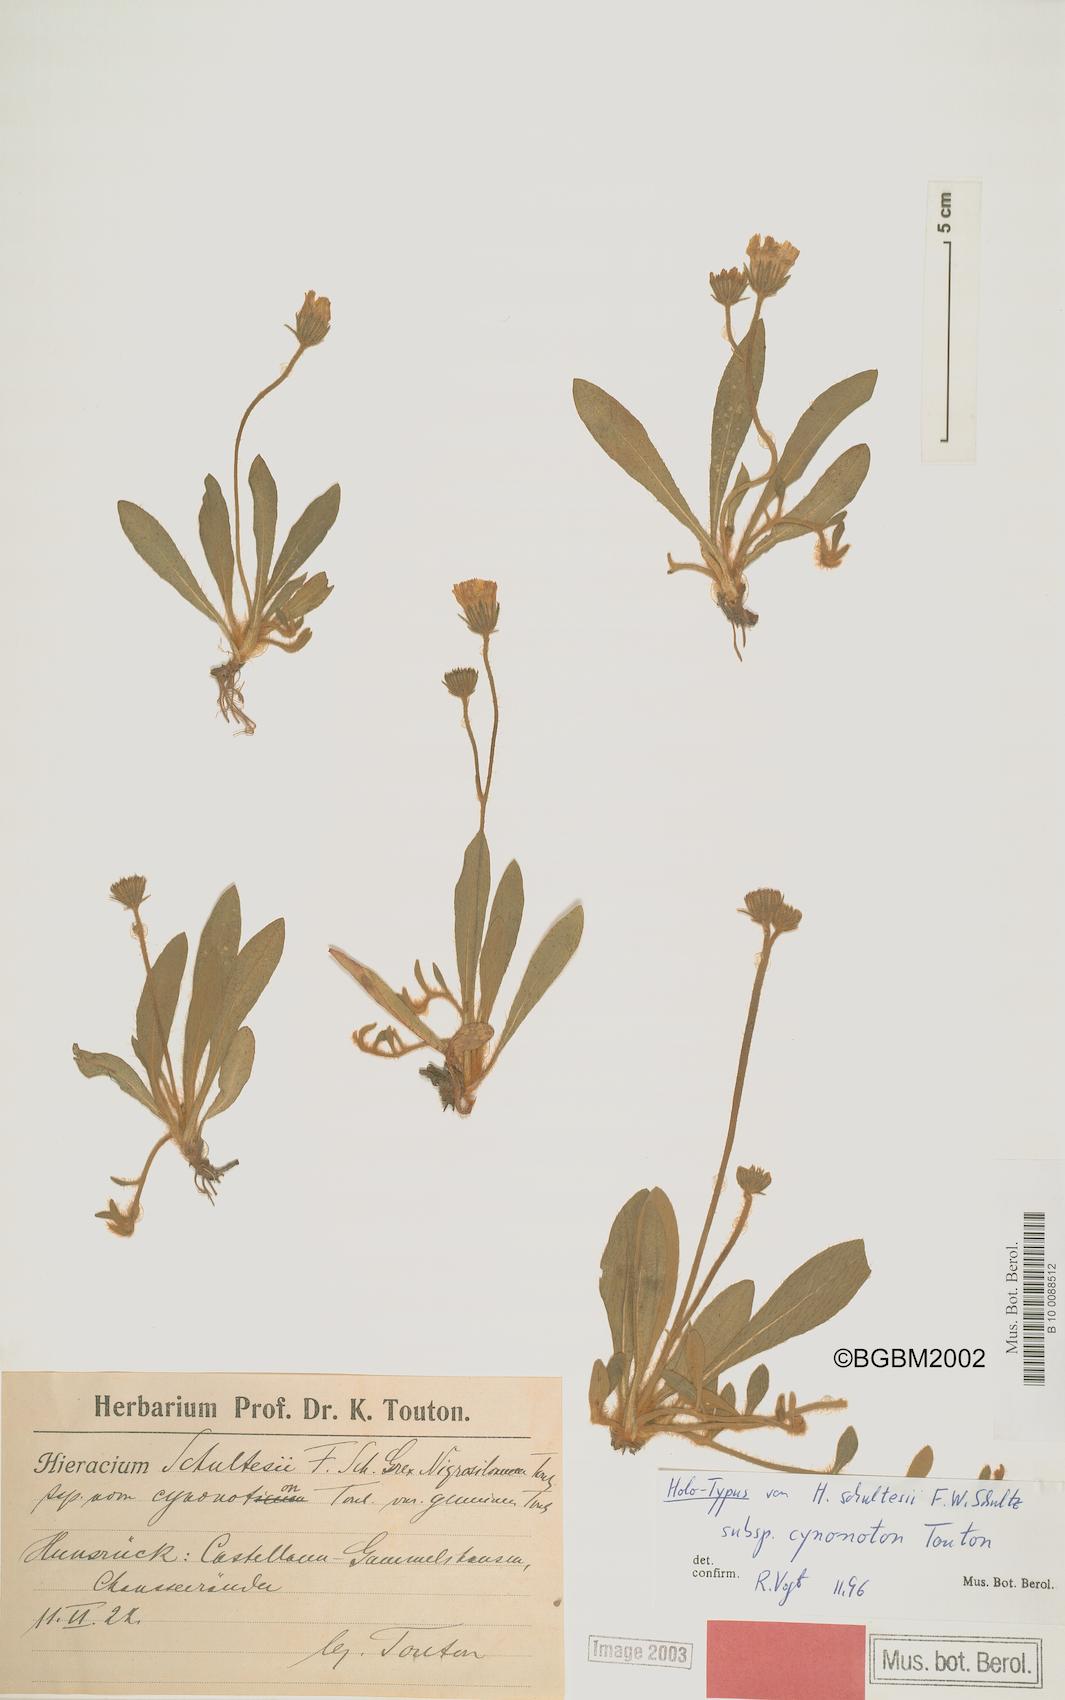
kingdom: Plantae
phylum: Tracheophyta
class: Magnoliopsida
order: Asterales
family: Asteraceae
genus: Pilosella
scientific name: Pilosella schultesii
